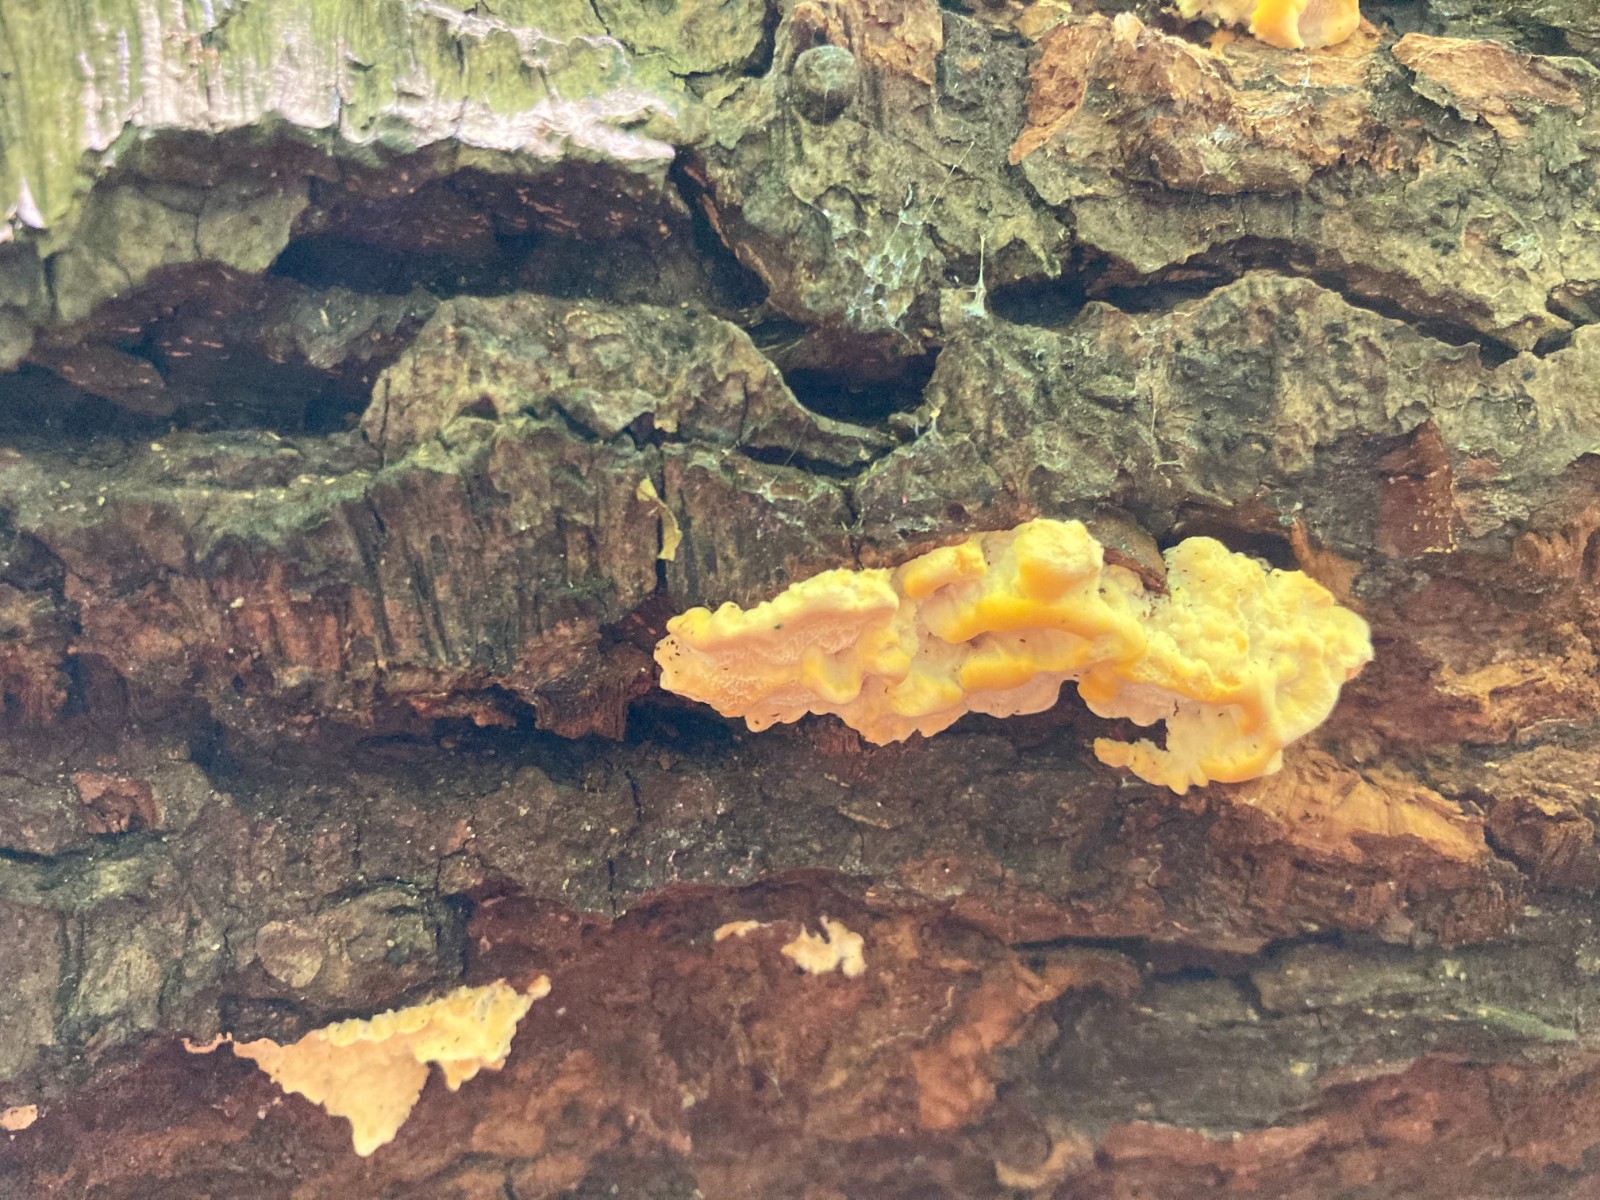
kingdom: Fungi
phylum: Basidiomycota
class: Agaricomycetes
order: Polyporales
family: Steccherinaceae
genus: Antrodiella
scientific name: Antrodiella serpula
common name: gulrandet elastikporesvamp
